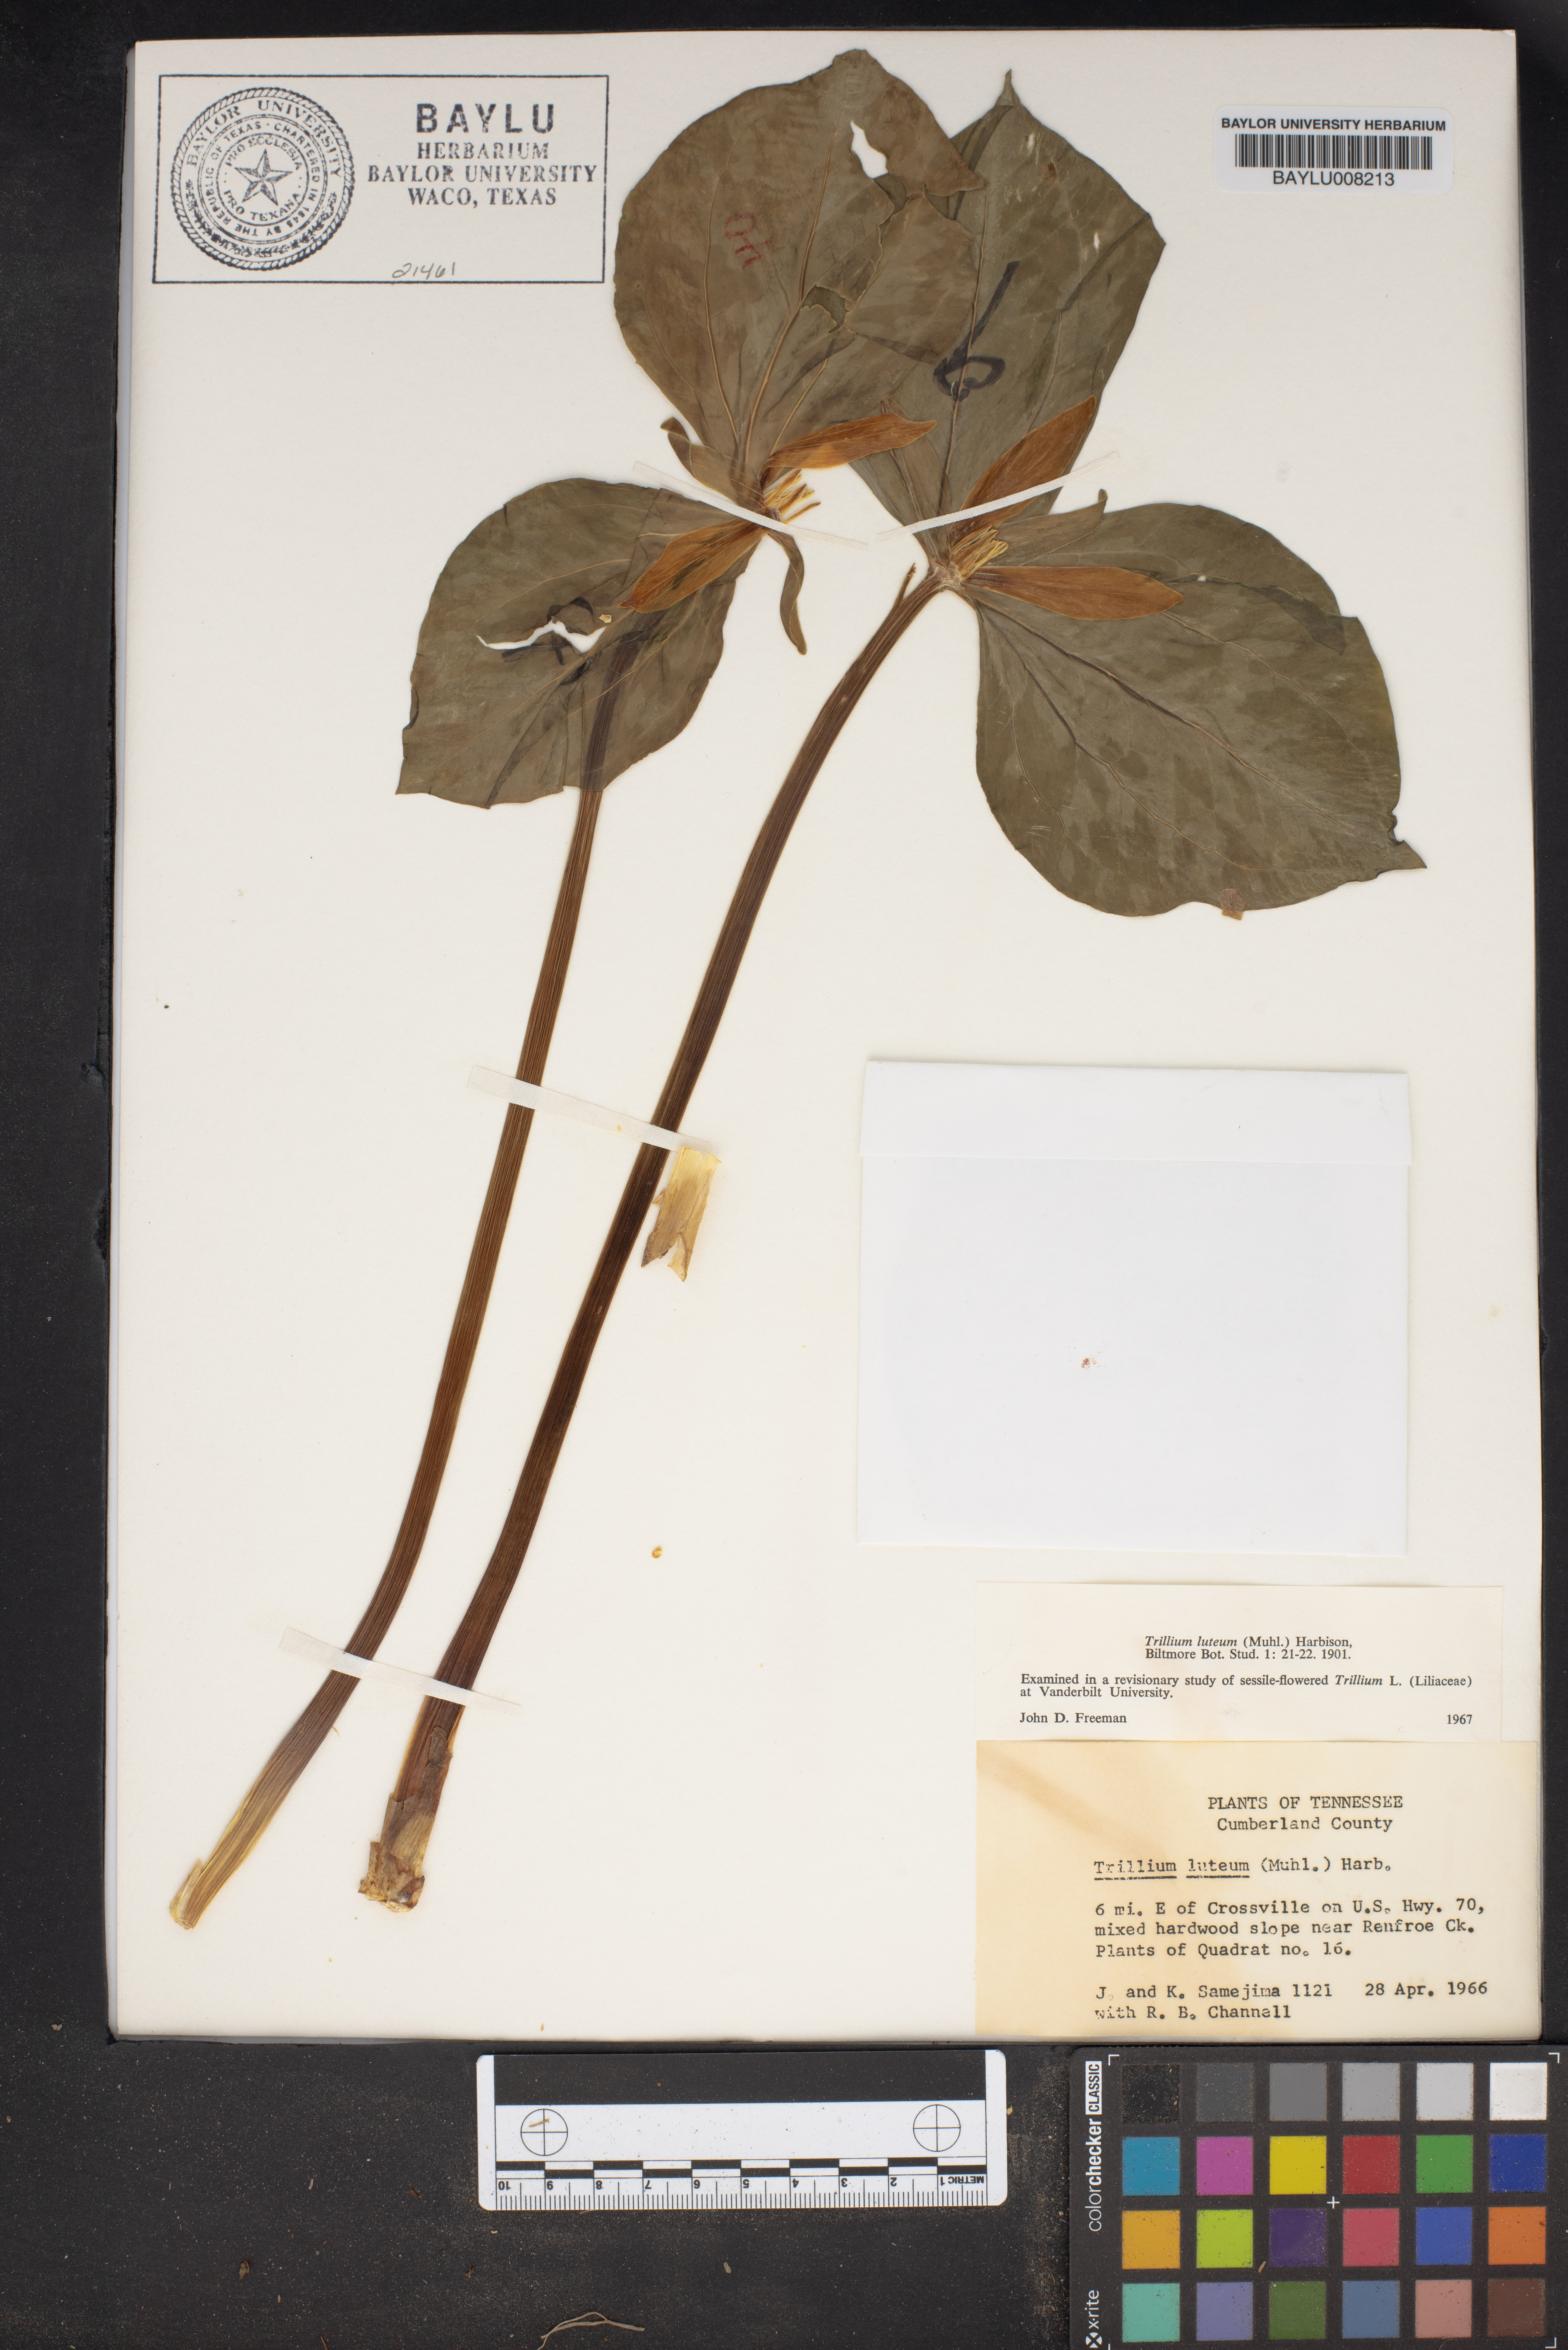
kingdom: Plantae
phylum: Tracheophyta
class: Liliopsida
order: Liliales
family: Melanthiaceae
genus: Trillium
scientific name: Trillium luteum
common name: Wax trillium
